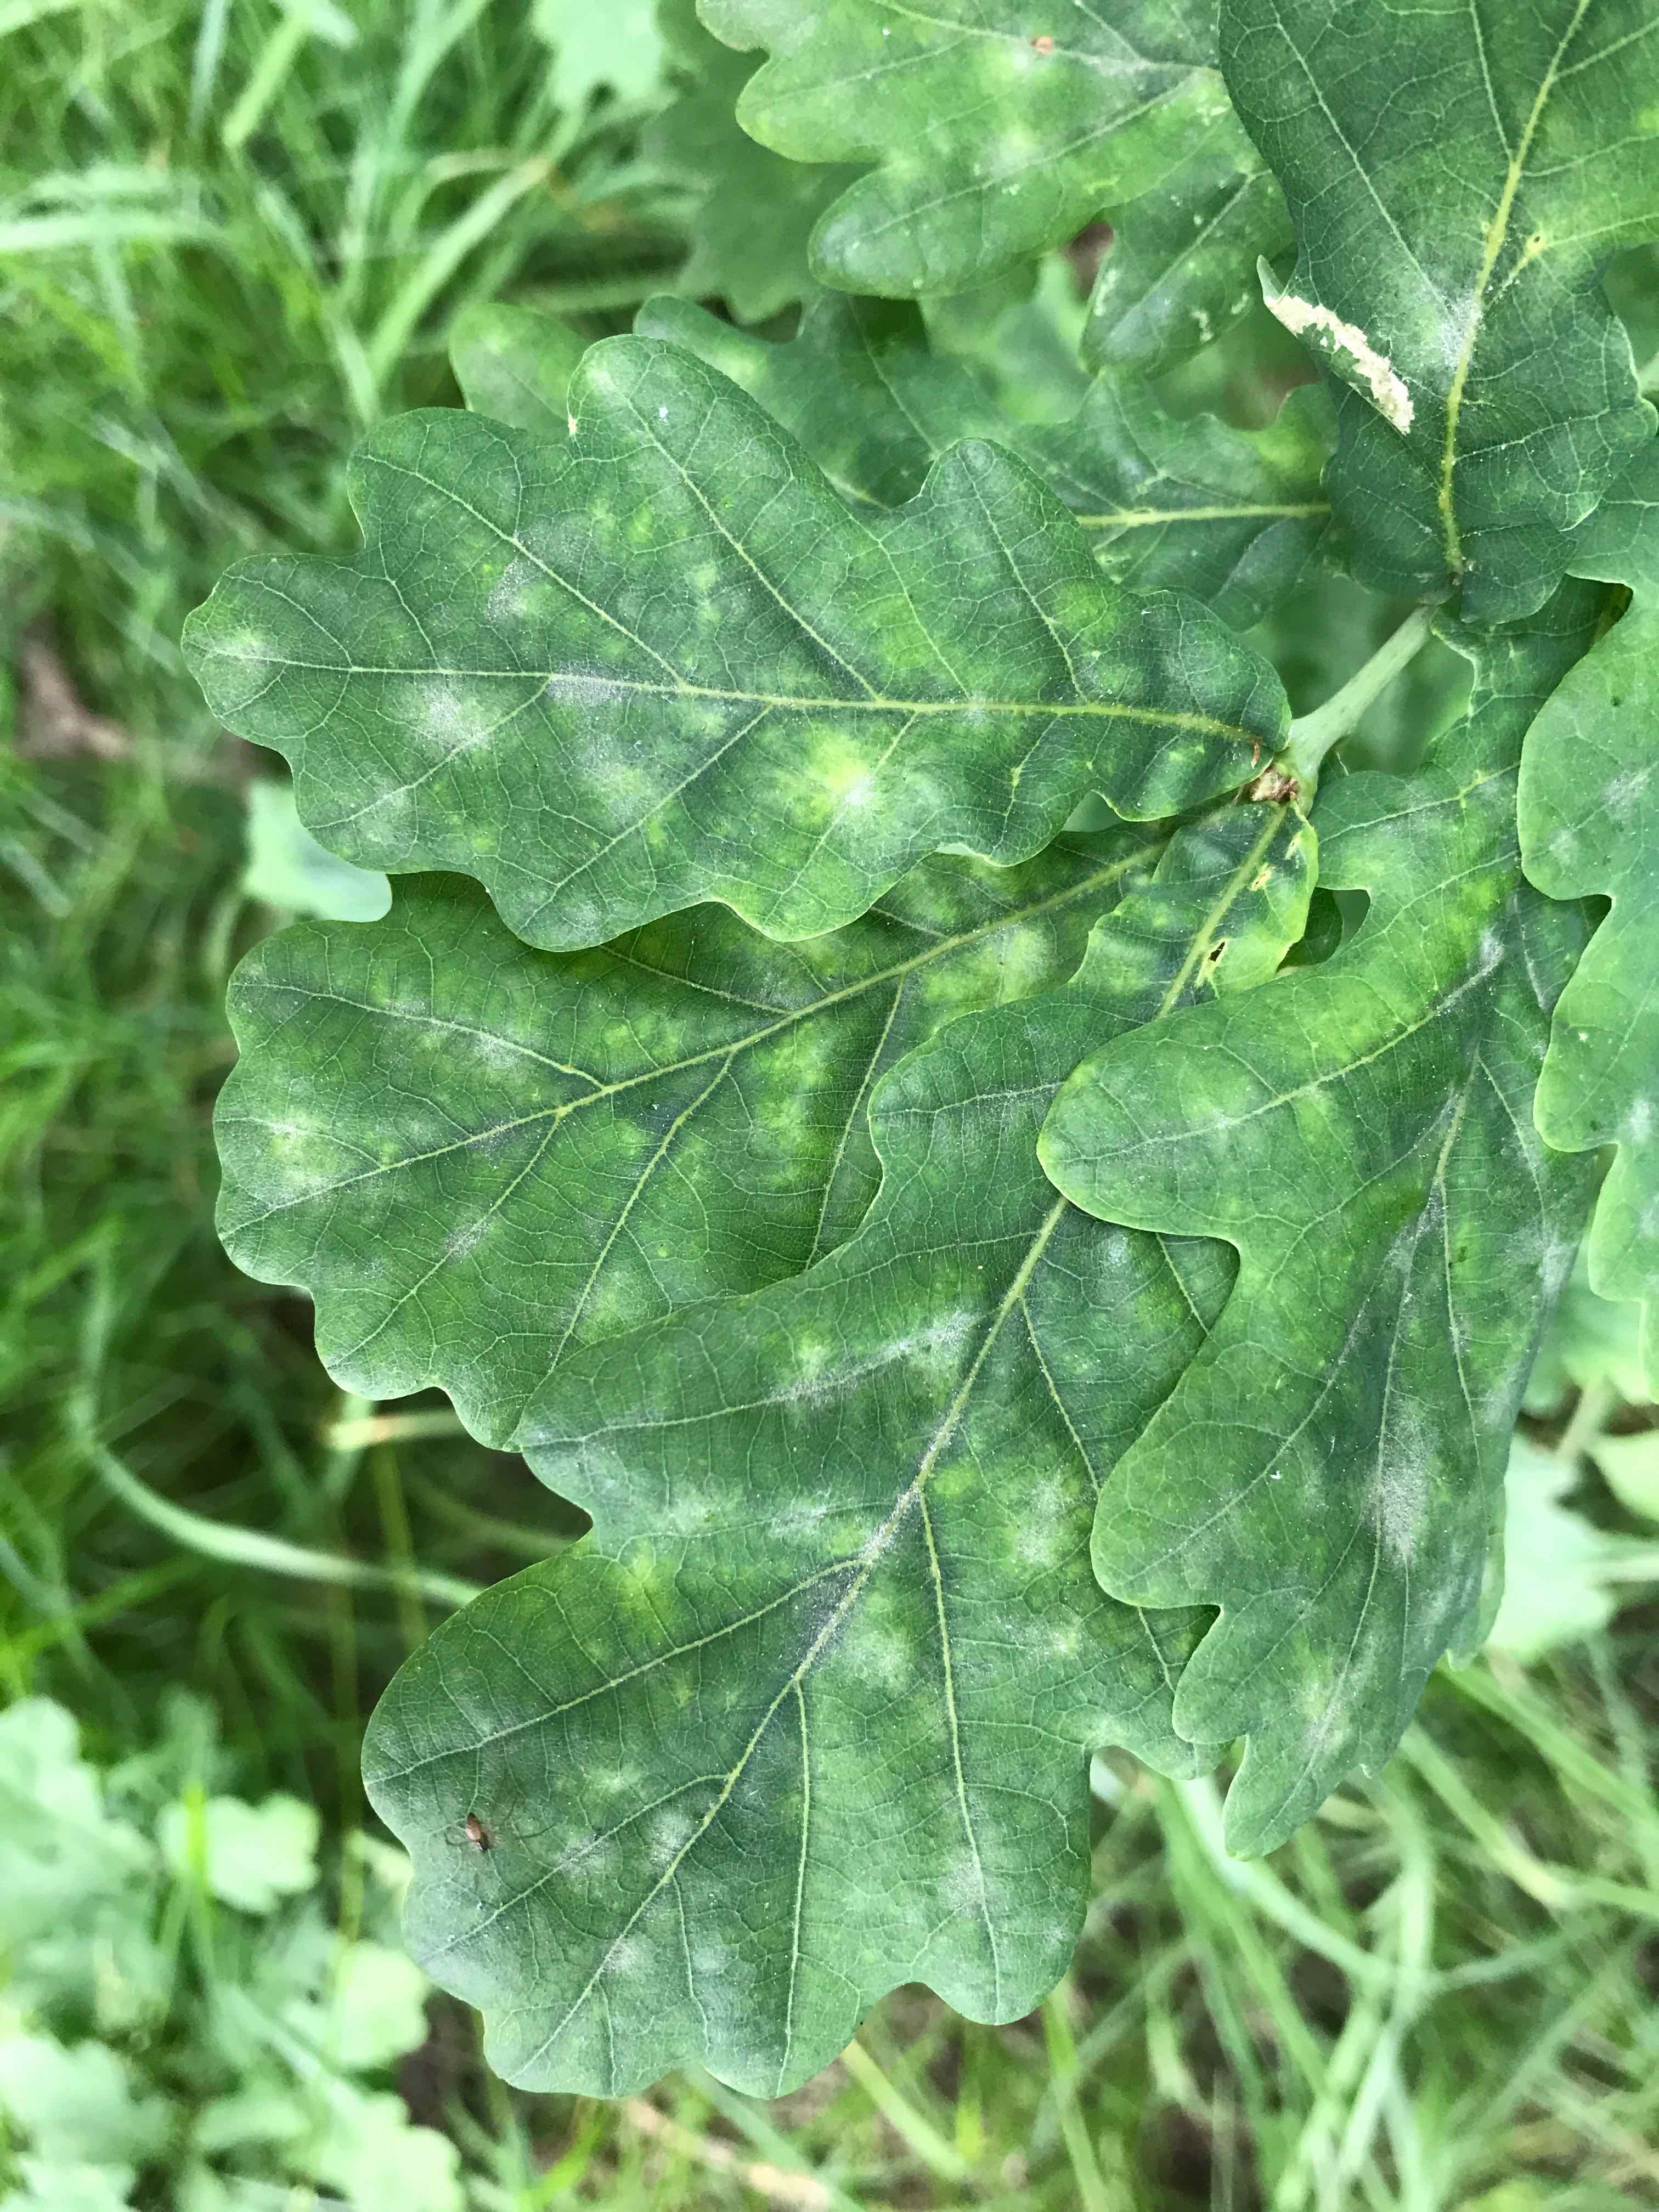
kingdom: Fungi
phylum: Ascomycota
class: Leotiomycetes
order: Helotiales
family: Erysiphaceae
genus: Erysiphe
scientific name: Erysiphe alphitoides
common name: ege-meldug
